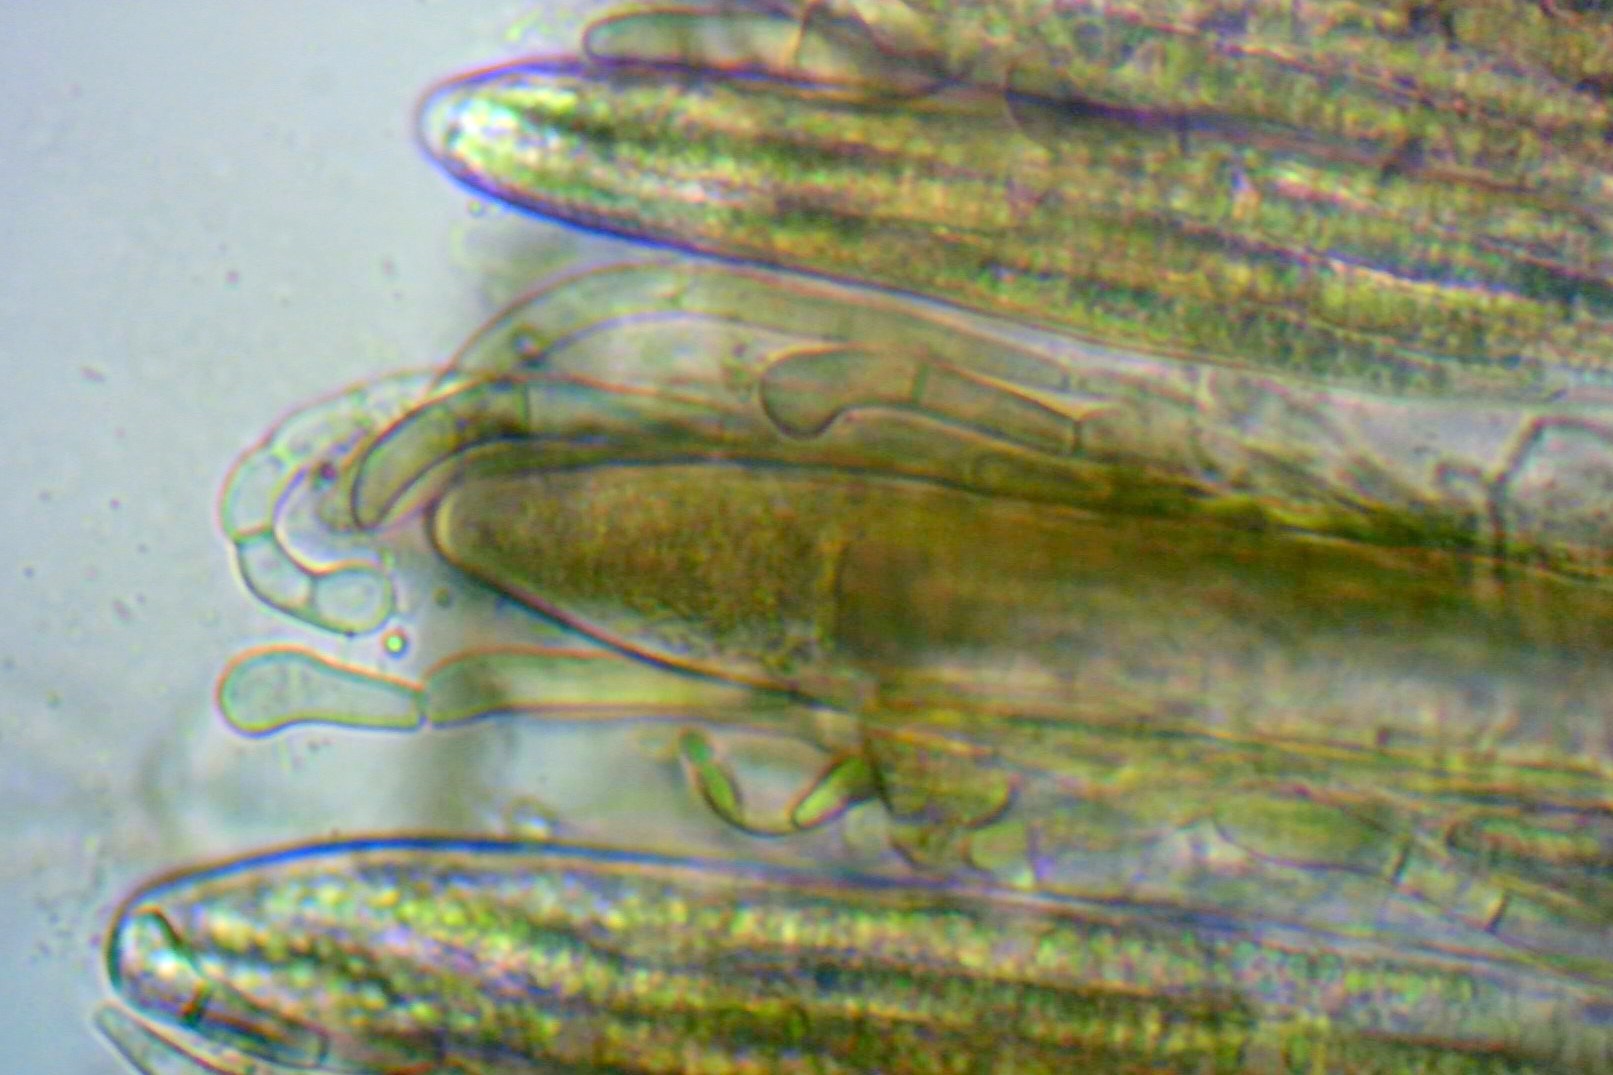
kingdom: Fungi
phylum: Ascomycota
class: Geoglossomycetes
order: Geoglossales
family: Geoglossaceae
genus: Geoglossum
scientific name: Geoglossum fallax
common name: småskællet jordtunge
